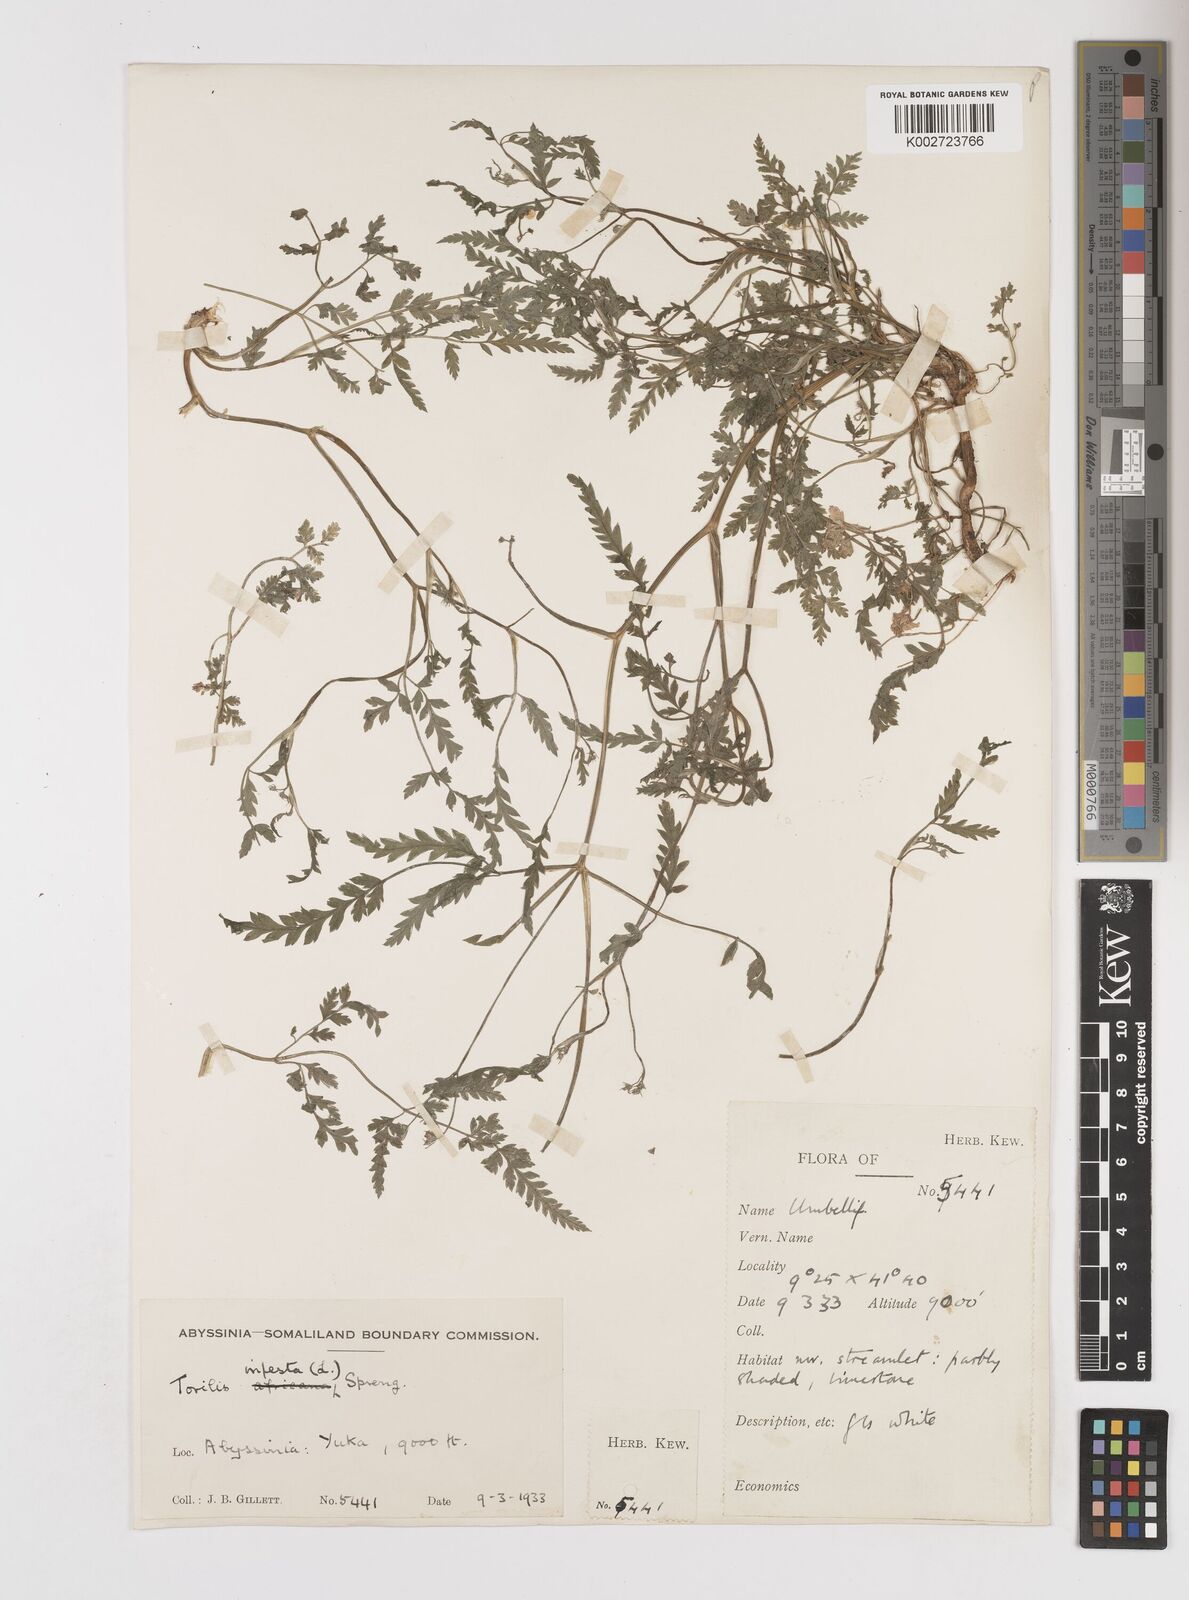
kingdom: Plantae
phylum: Tracheophyta
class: Magnoliopsida
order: Apiales
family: Apiaceae
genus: Torilis
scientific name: Torilis arvensis
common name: Spreading hedge-parsley
